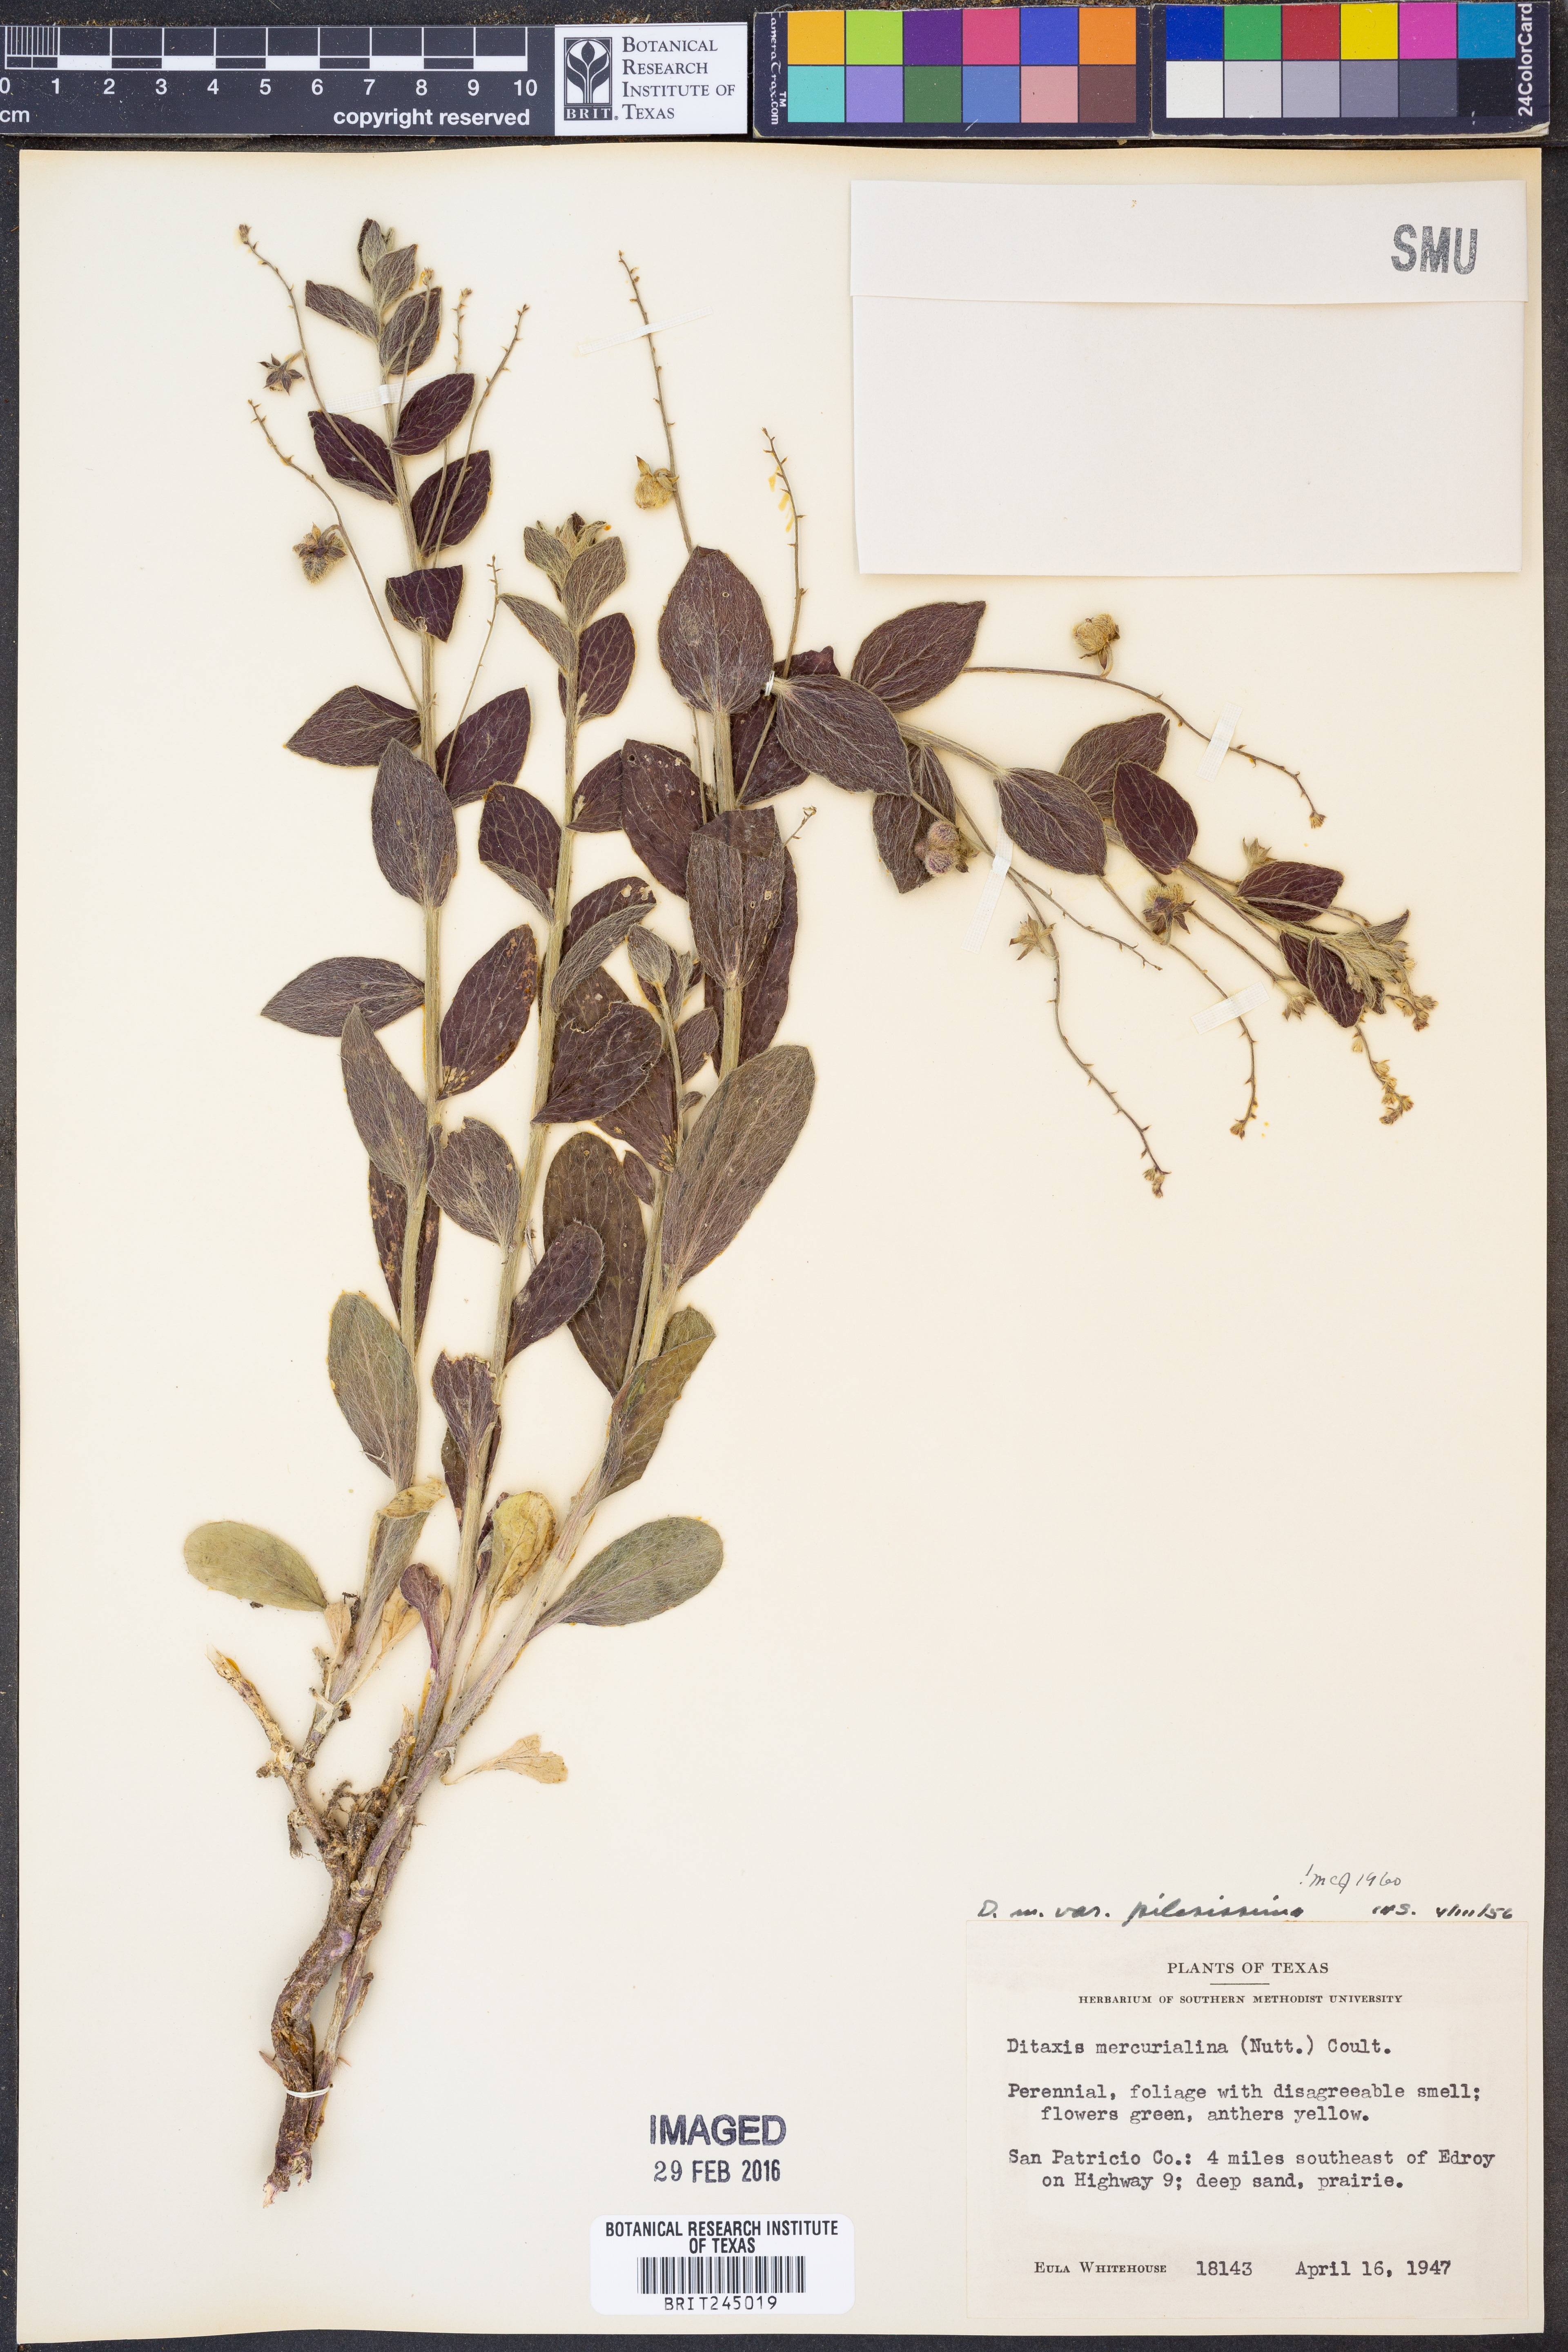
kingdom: Plantae
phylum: Tracheophyta
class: Magnoliopsida
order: Malpighiales
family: Euphorbiaceae
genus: Ditaxis
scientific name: Ditaxis mercurialina
